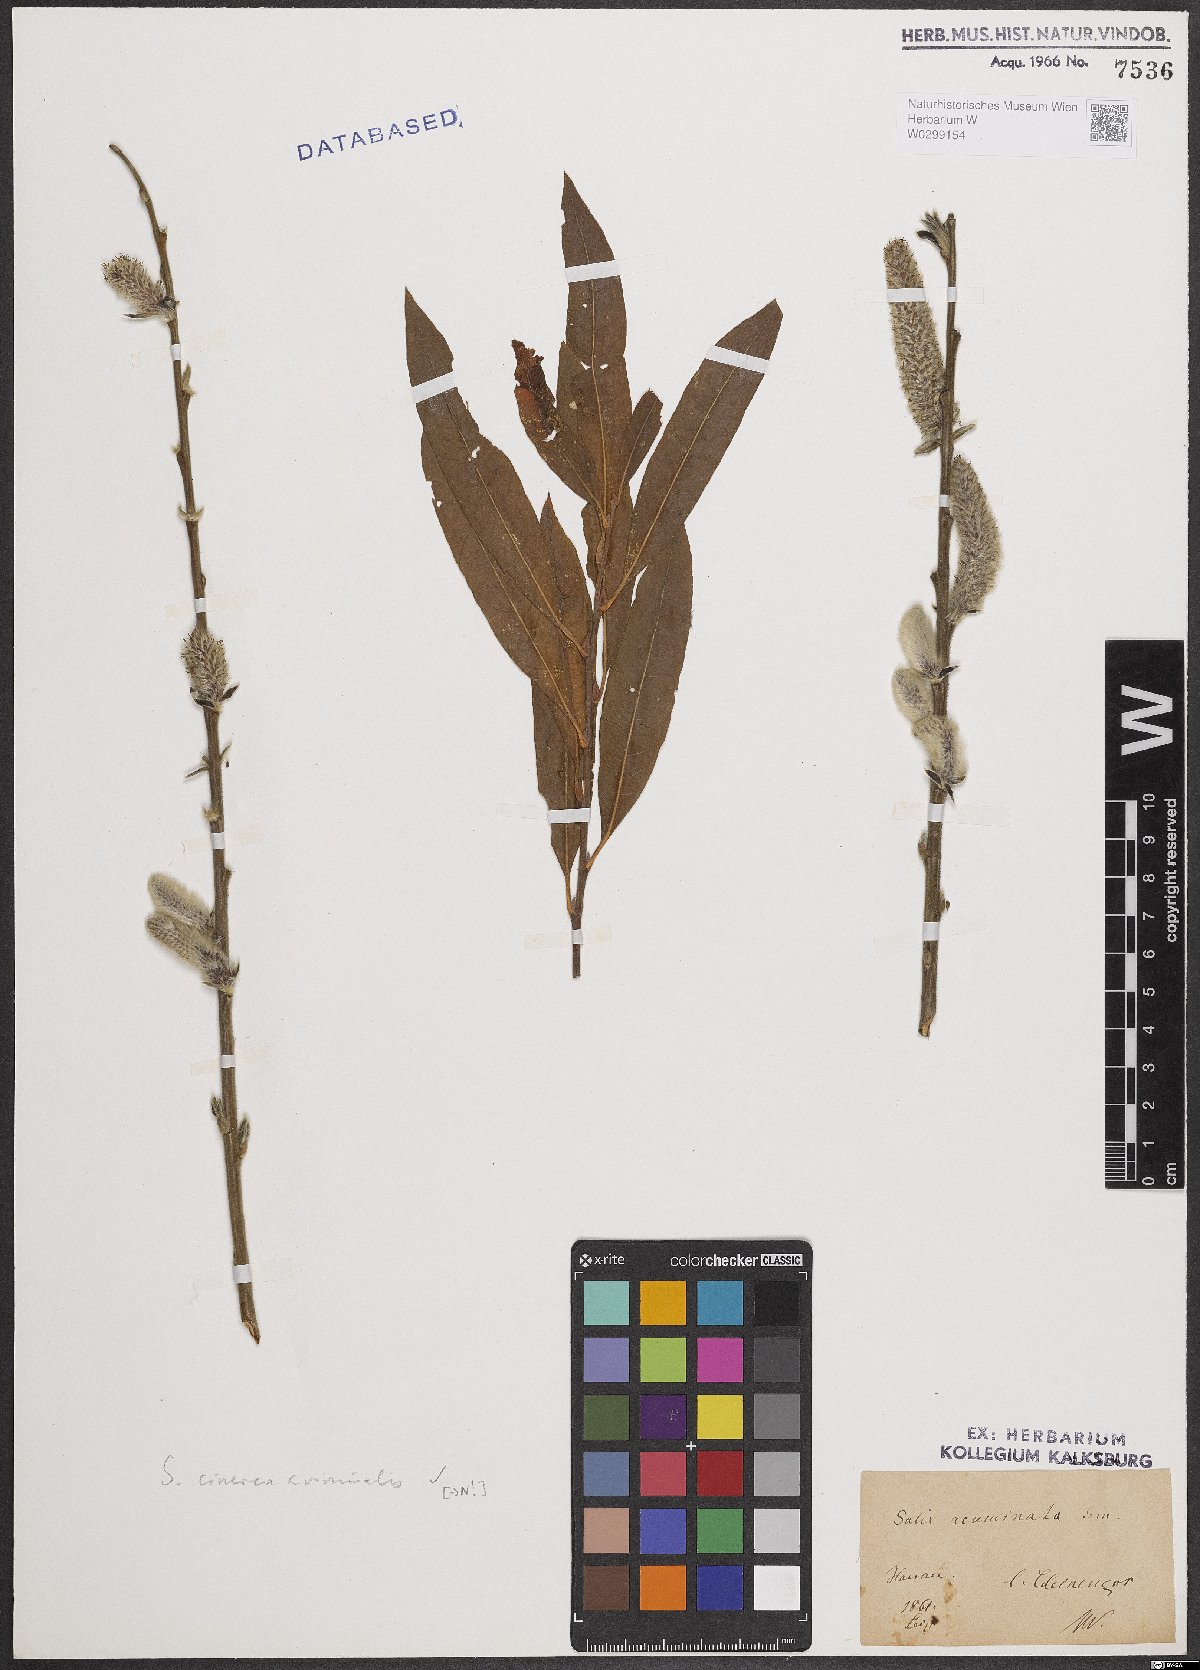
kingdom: Plantae
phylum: Tracheophyta
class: Magnoliopsida
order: Malpighiales
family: Salicaceae
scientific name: Salicaceae
